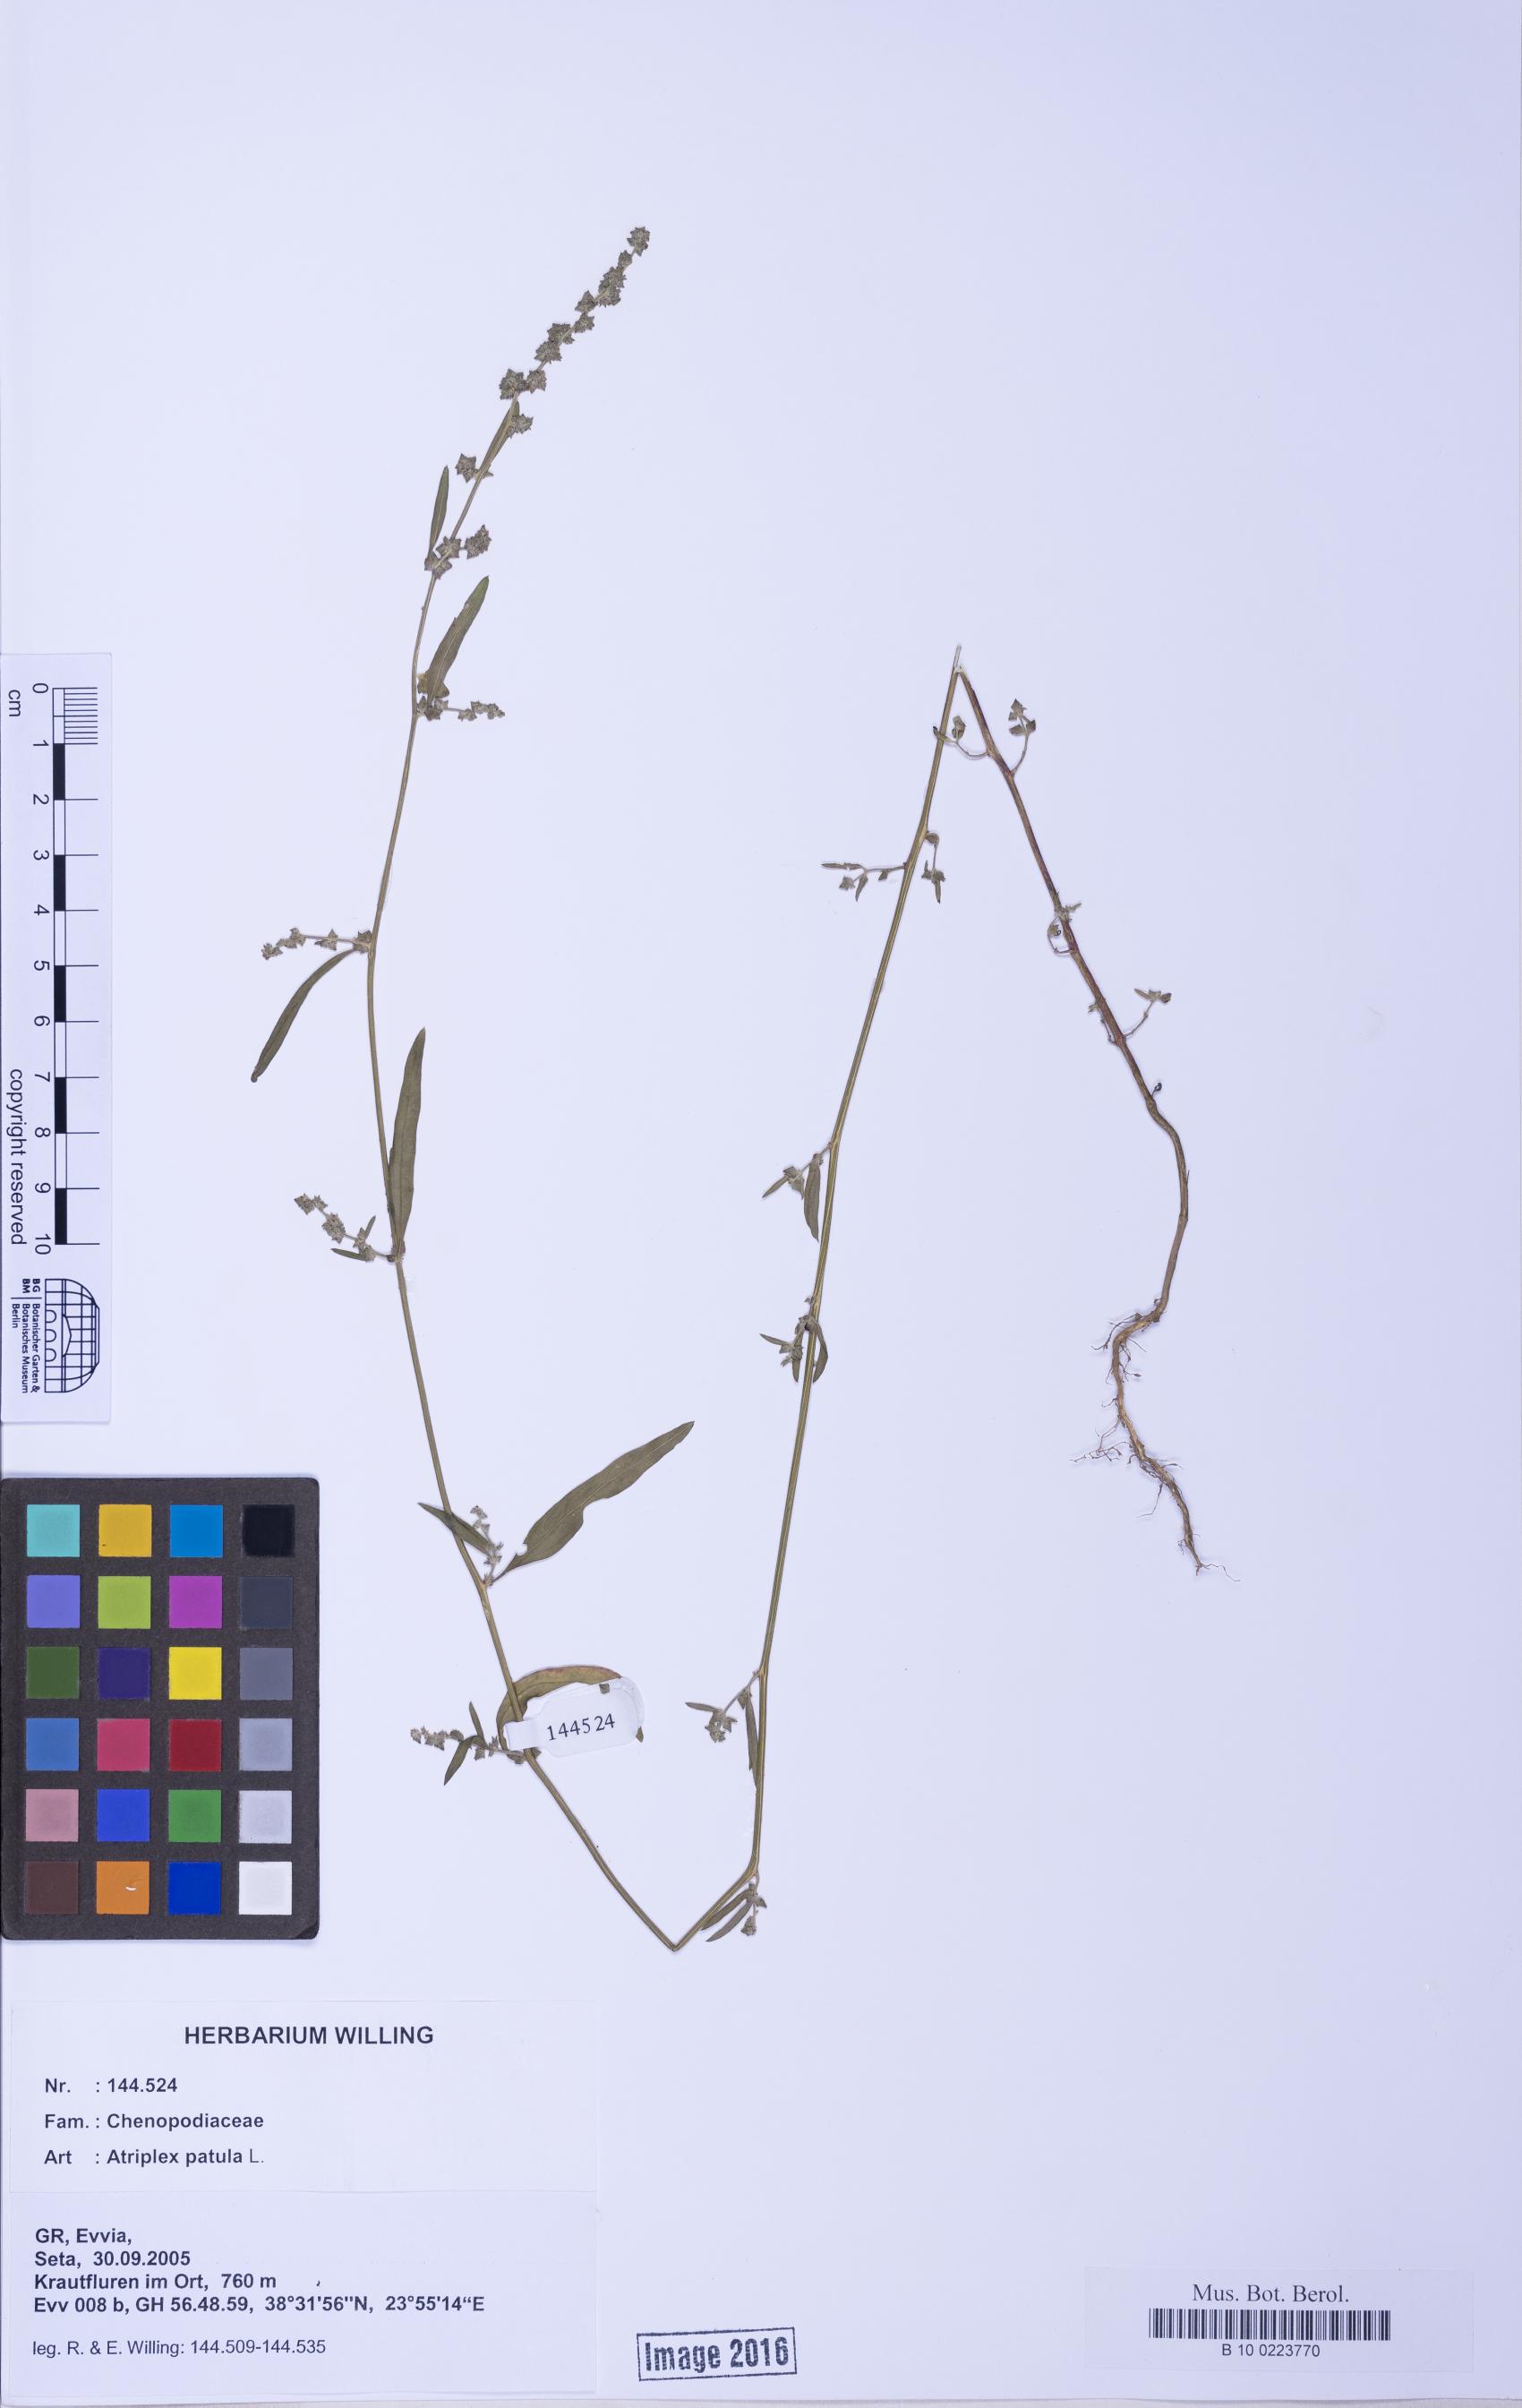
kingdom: Plantae
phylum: Tracheophyta
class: Magnoliopsida
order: Caryophyllales
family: Amaranthaceae
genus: Atriplex
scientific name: Atriplex patula
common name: Common orache
